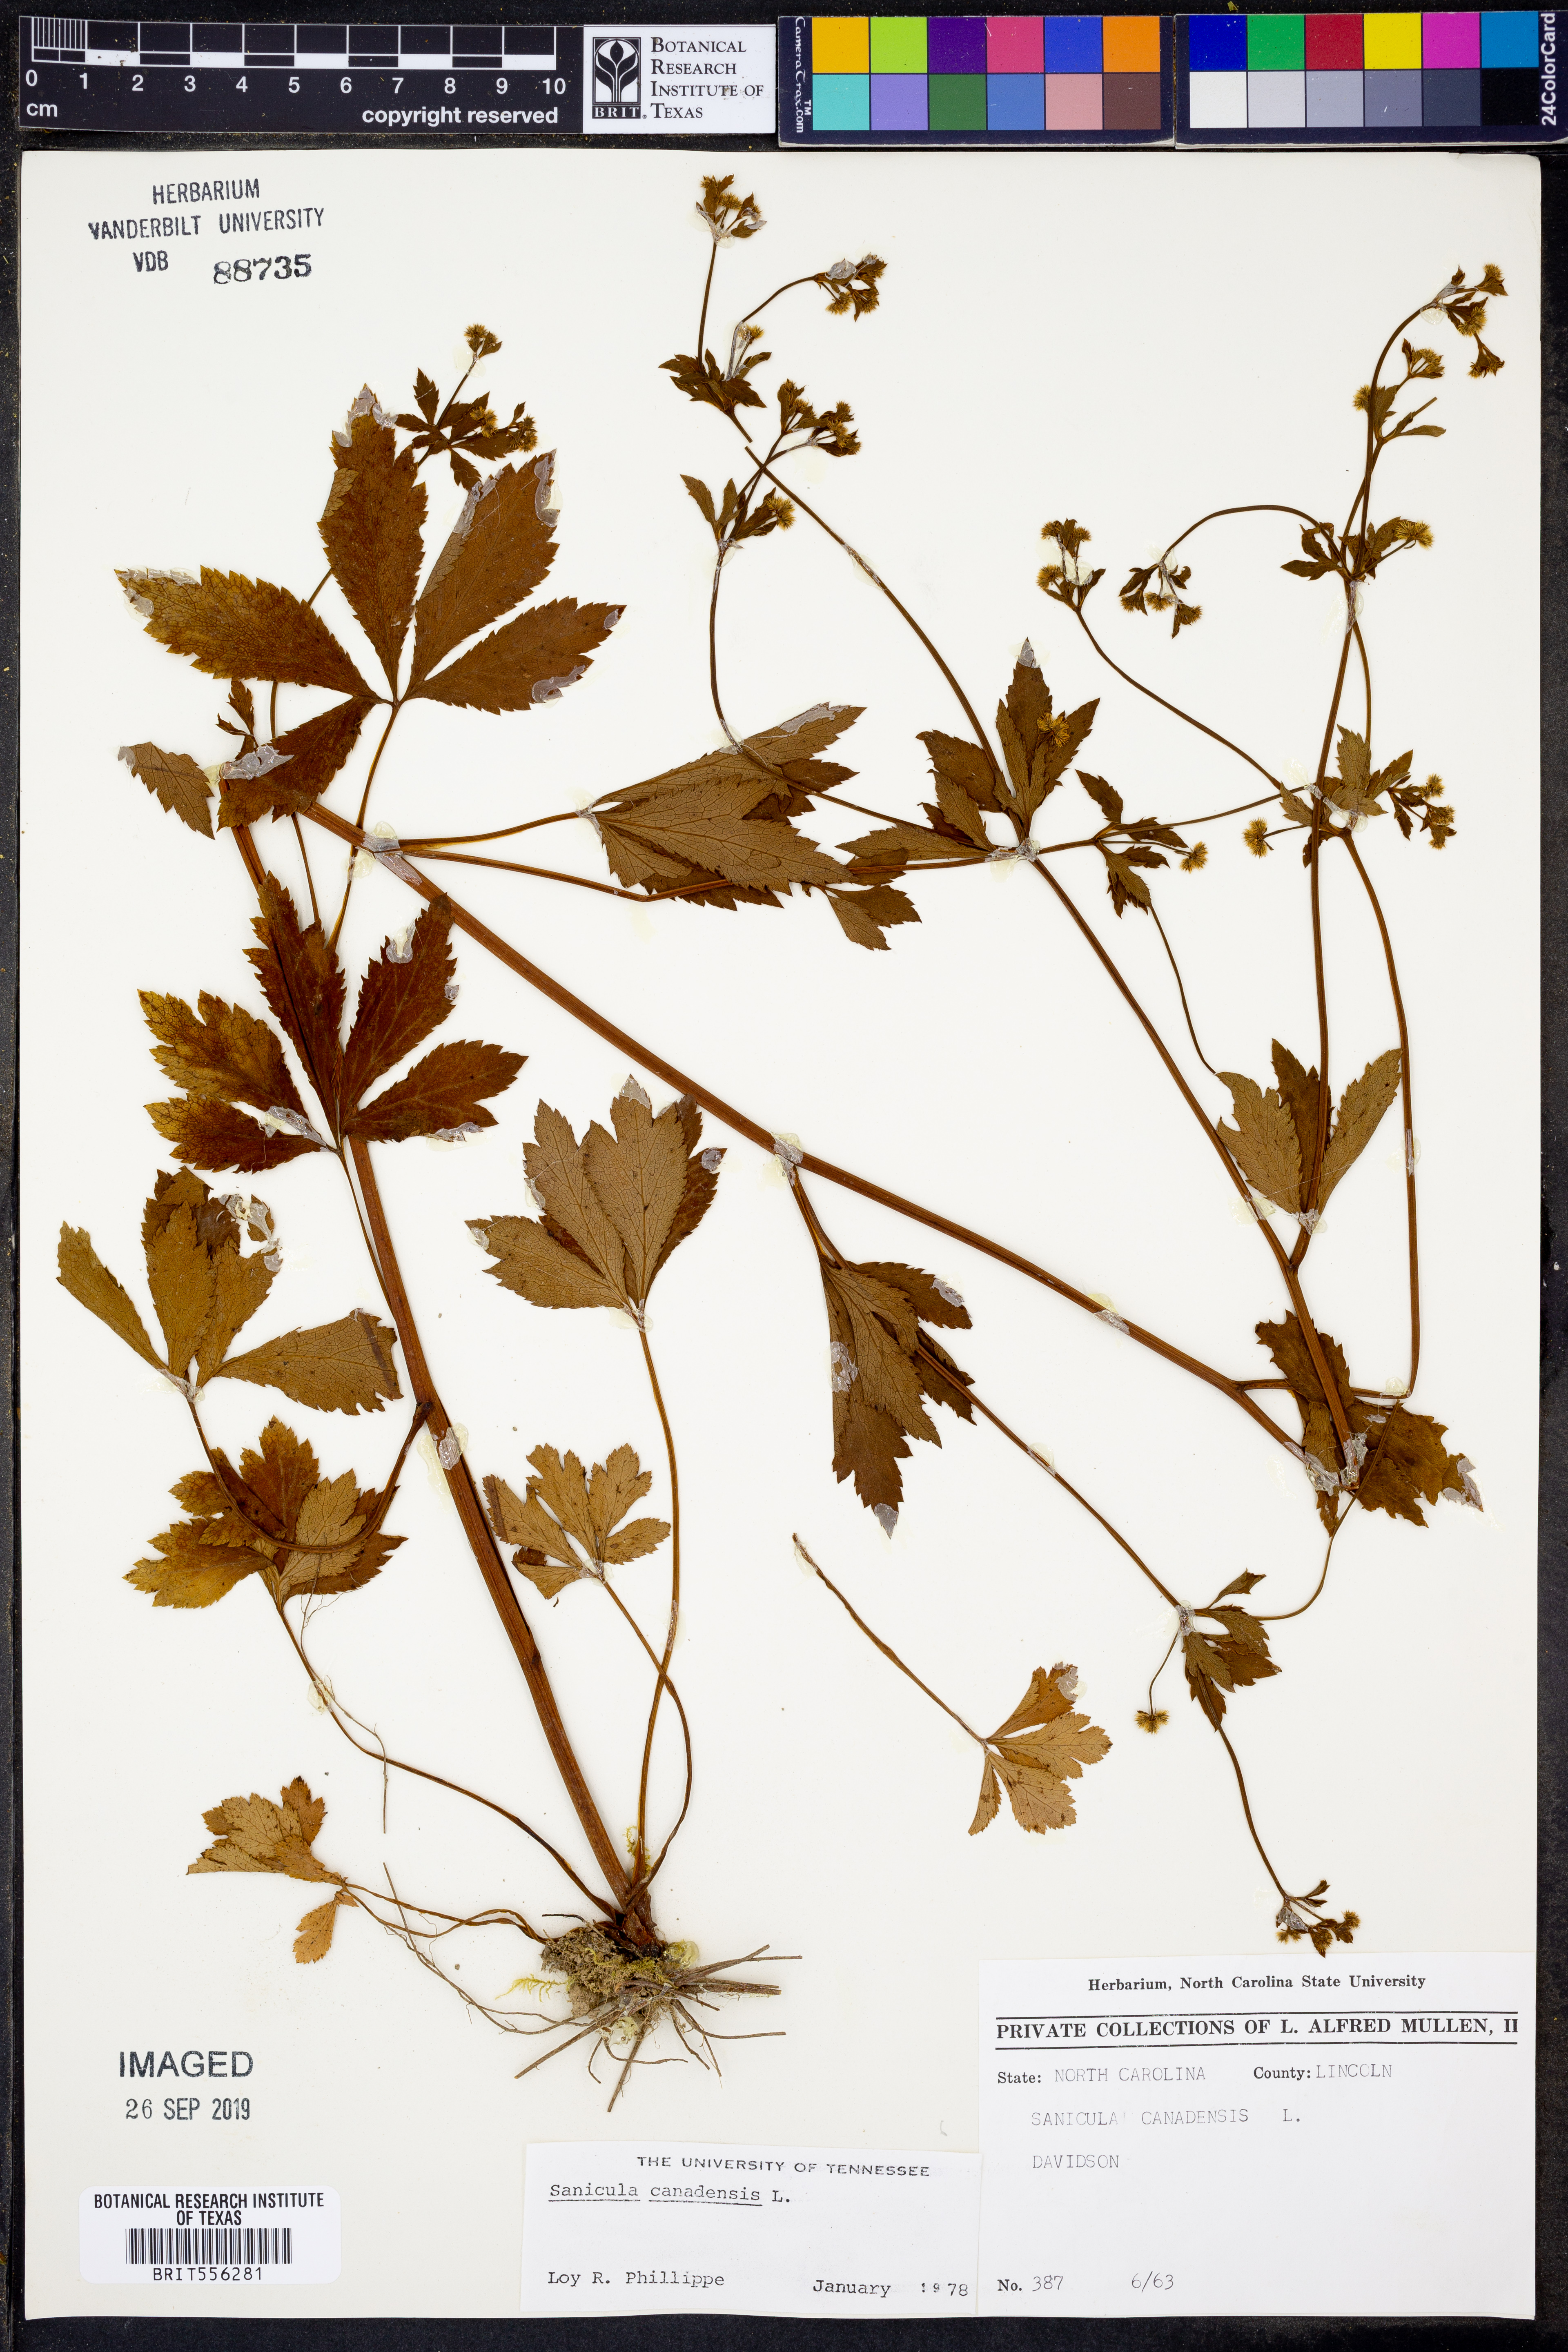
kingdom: Plantae
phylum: Tracheophyta
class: Magnoliopsida
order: Apiales
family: Apiaceae
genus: Sanicula
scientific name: Sanicula canadensis
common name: Canada sanicle
